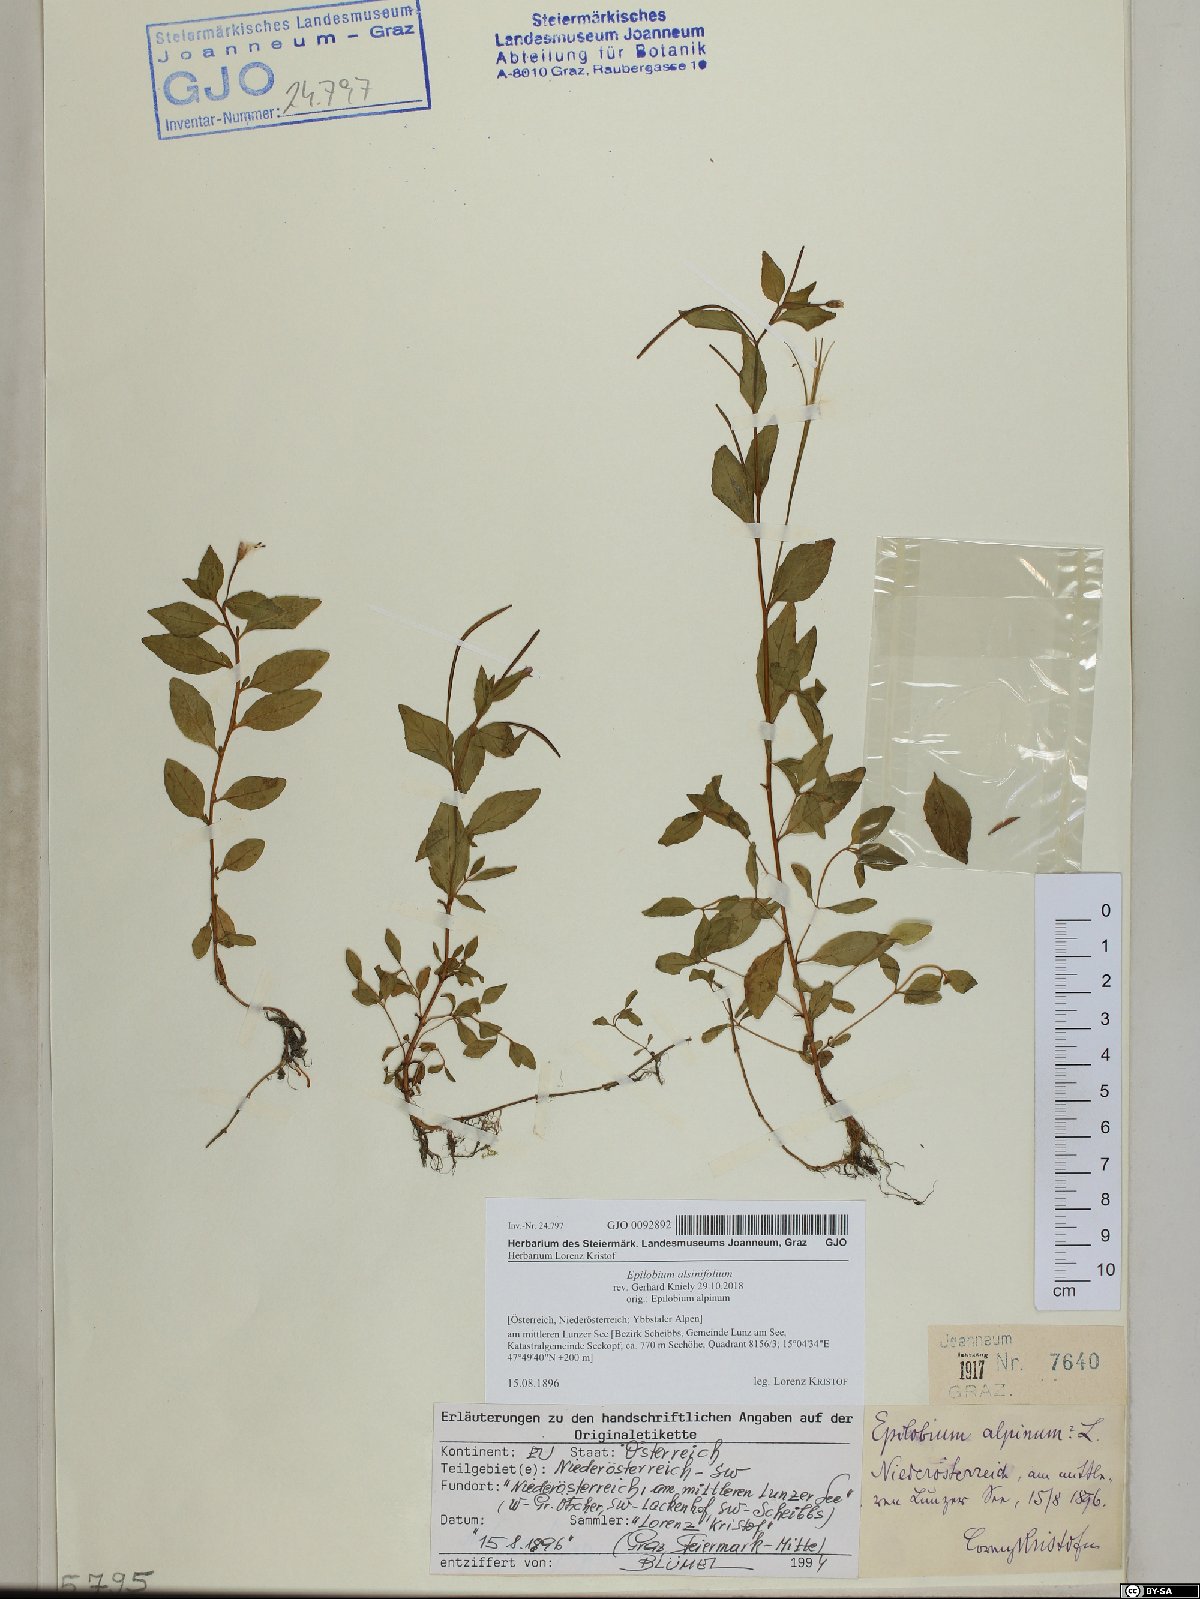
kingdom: Plantae
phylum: Tracheophyta
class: Magnoliopsida
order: Myrtales
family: Onagraceae
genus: Epilobium
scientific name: Epilobium alsinifolium
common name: Chickweed willowherb
